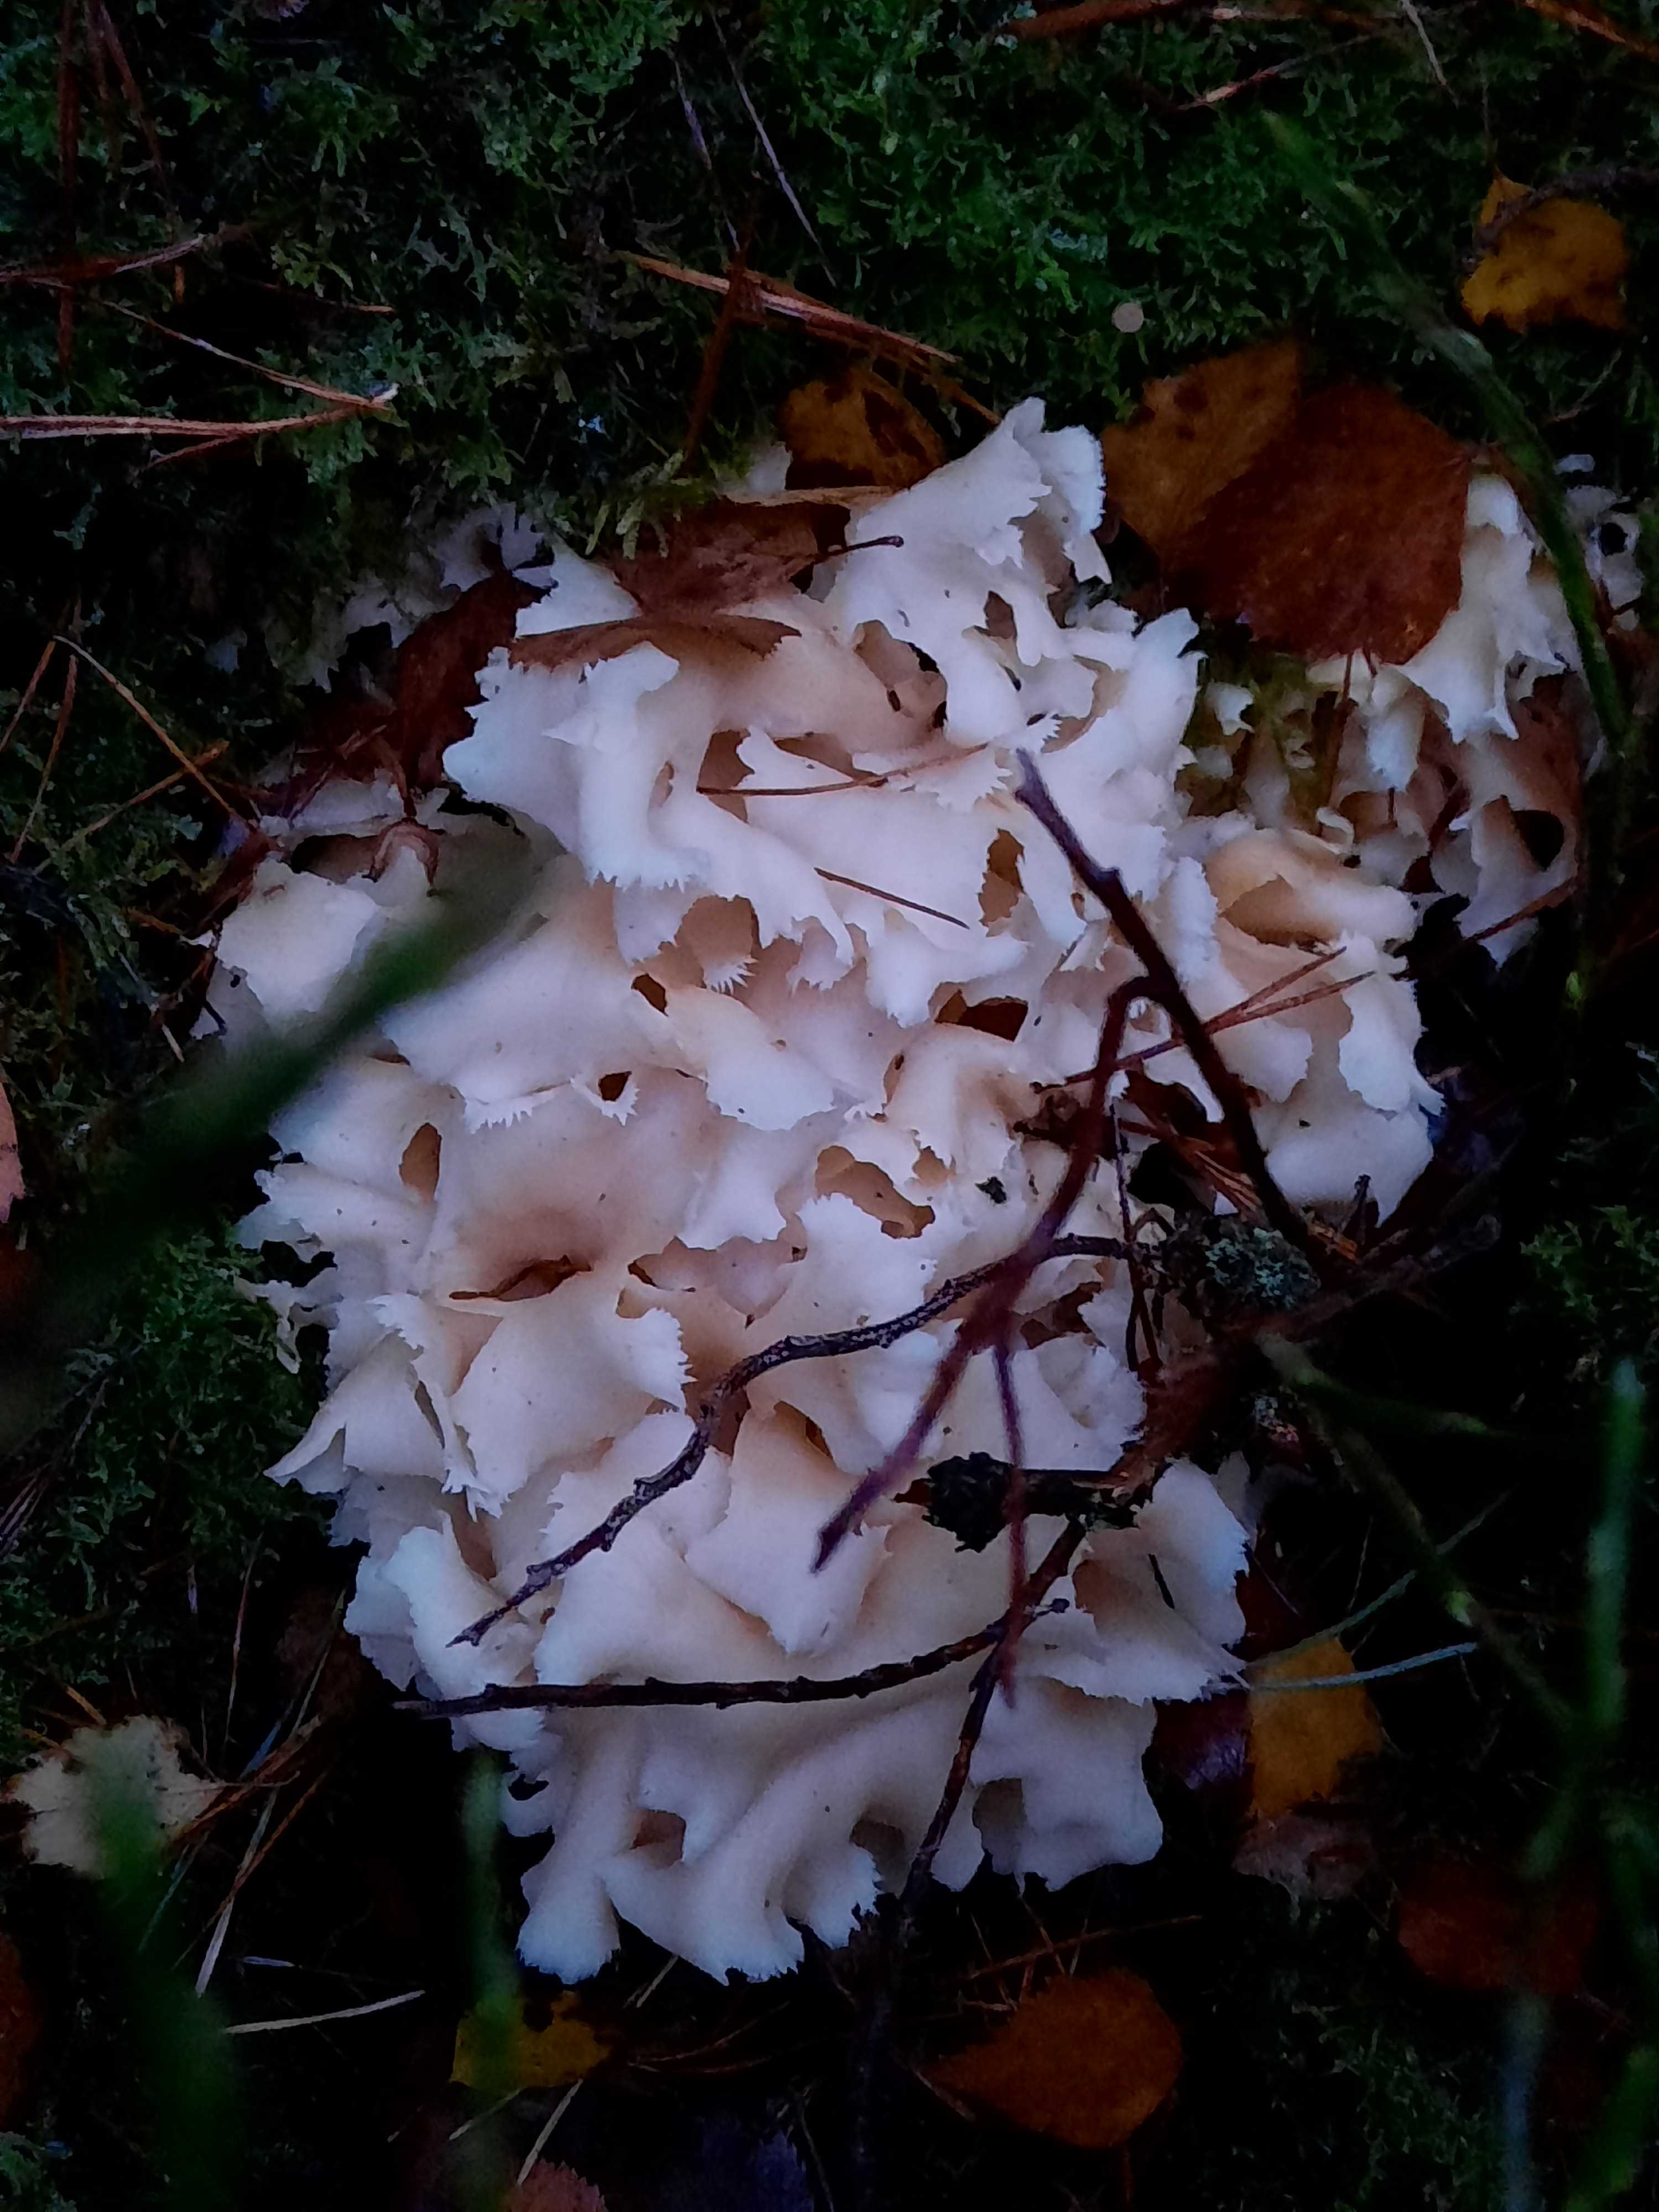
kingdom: Fungi
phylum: Basidiomycota
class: Agaricomycetes
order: Polyporales
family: Sparassidaceae
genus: Sparassis
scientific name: Sparassis crispa
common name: kruset blomkålssvamp
